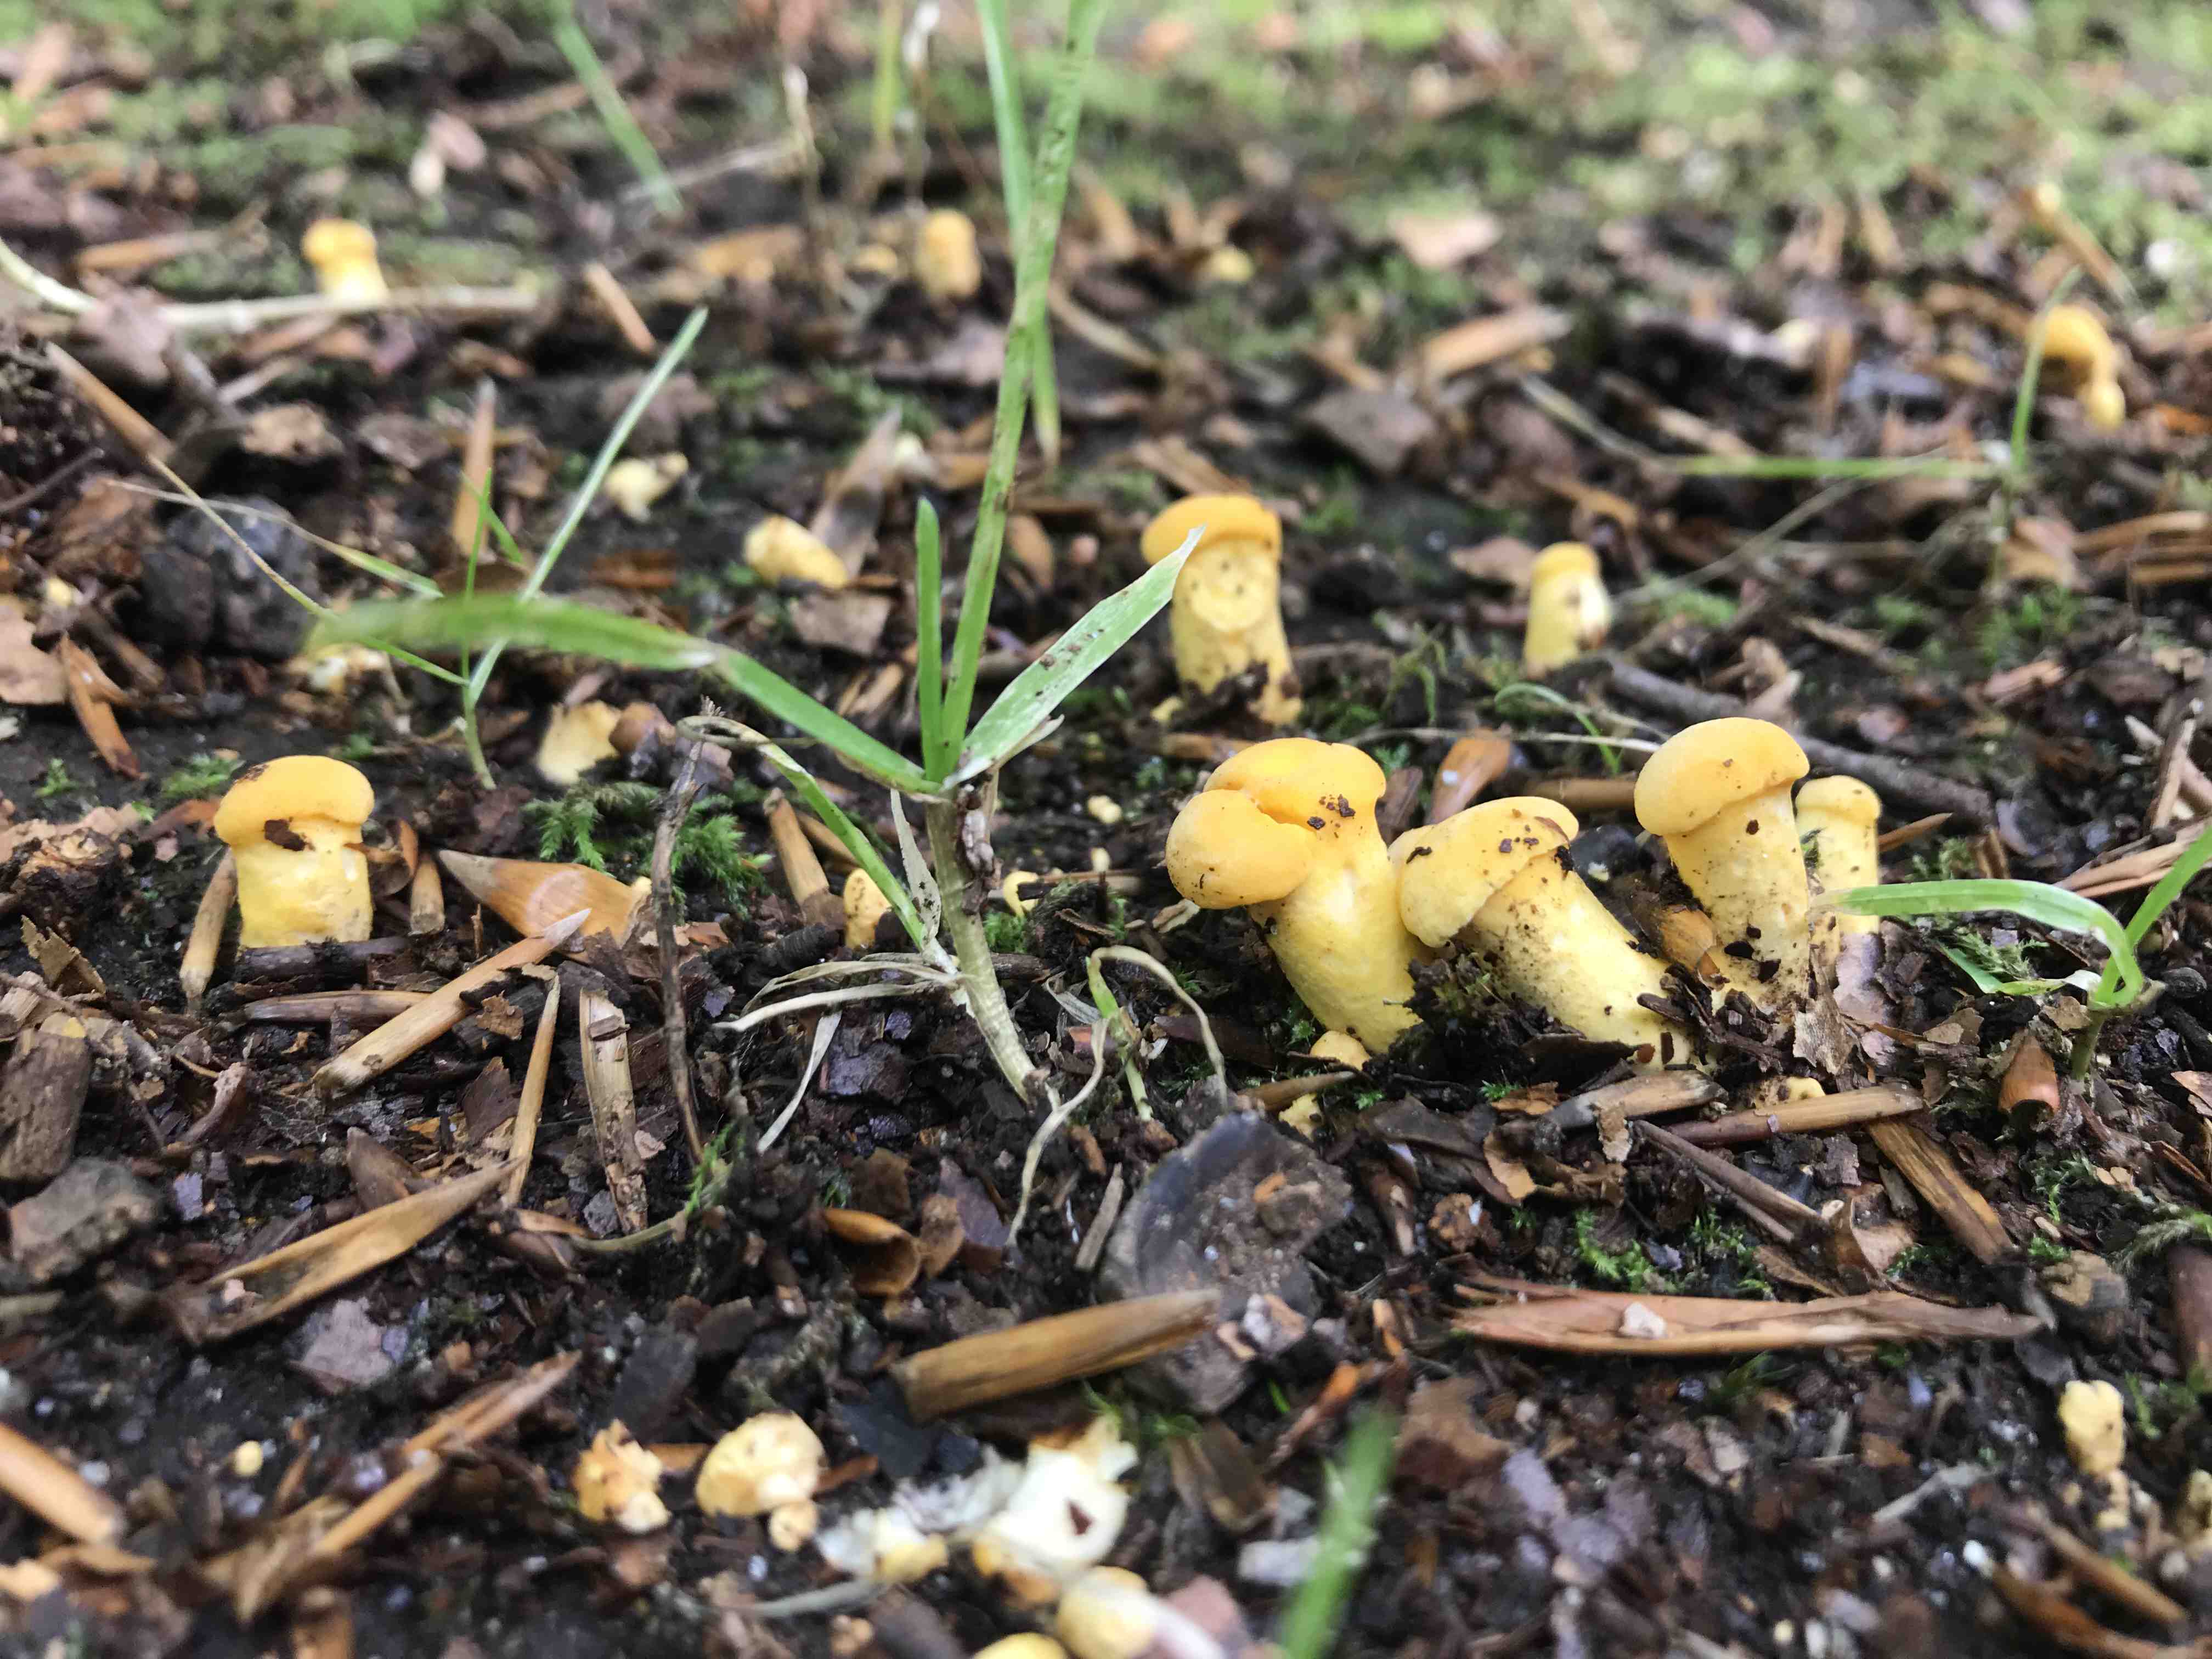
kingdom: Fungi
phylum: Basidiomycota
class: Agaricomycetes
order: Cantharellales
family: Hydnaceae
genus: Cantharellus
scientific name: Cantharellus pallens
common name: bleg kantarel
